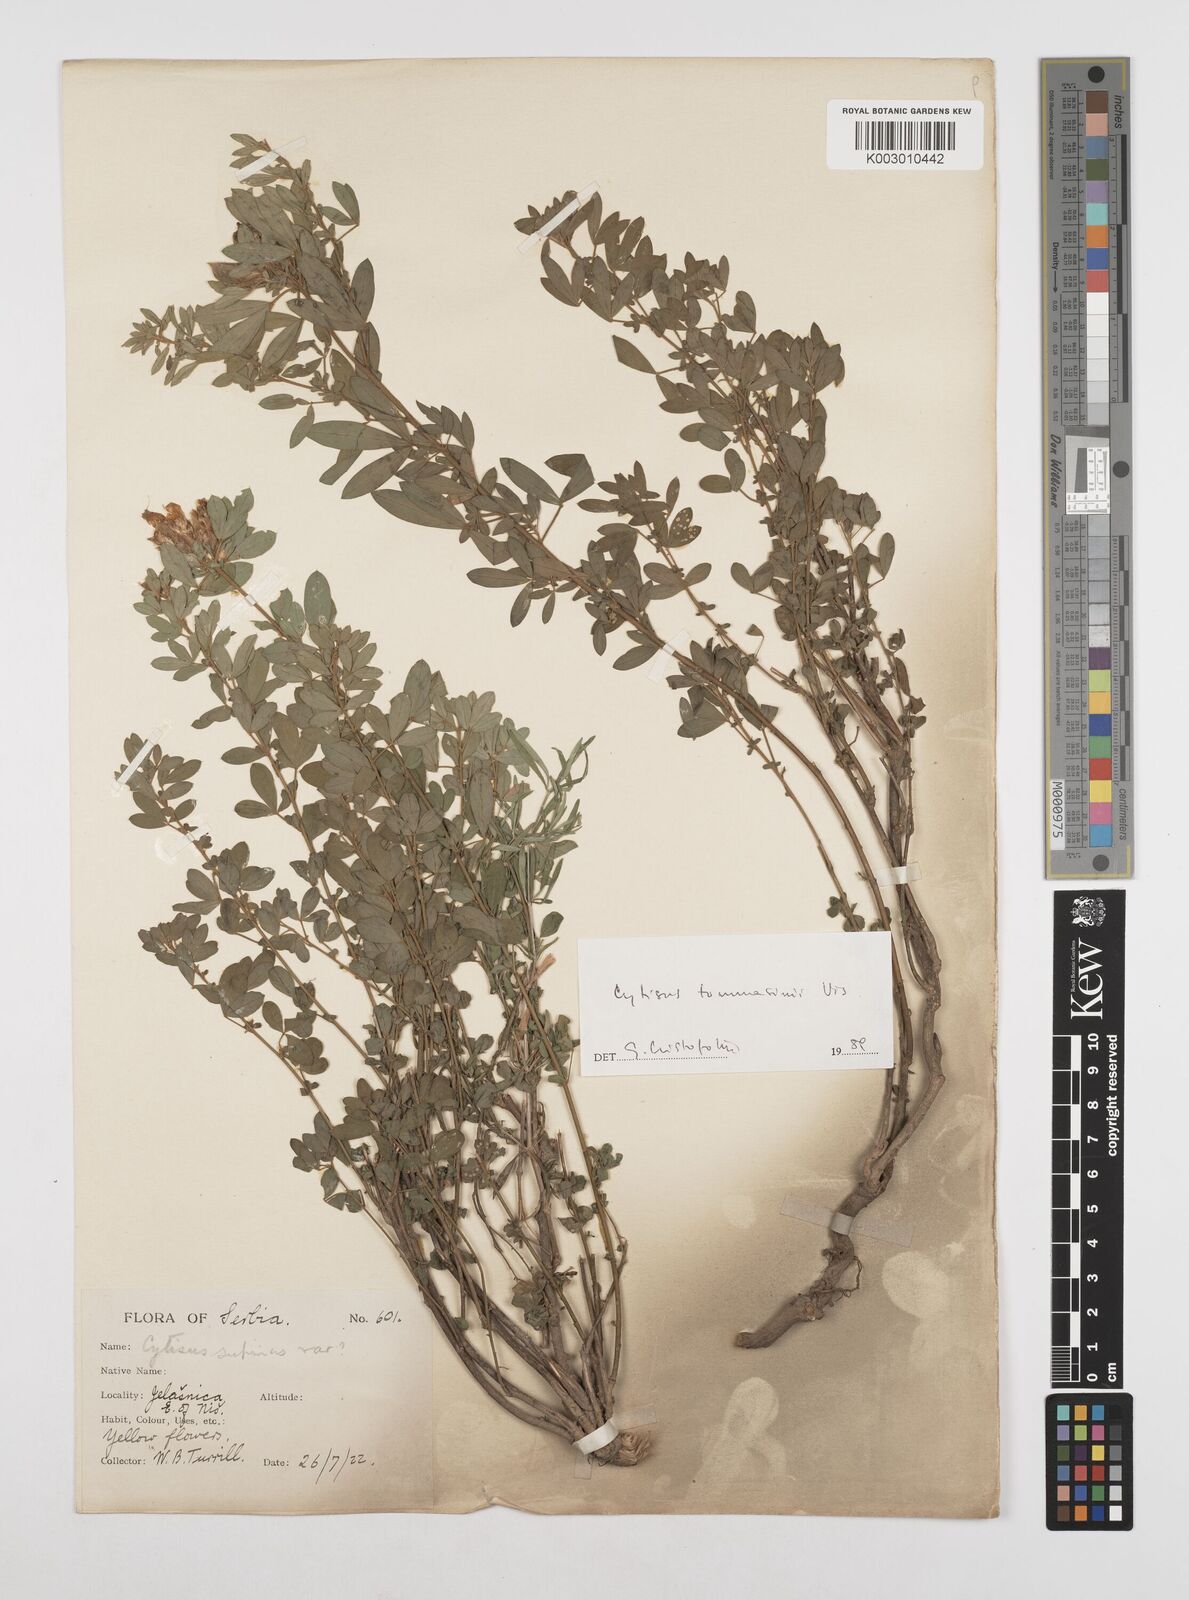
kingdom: Plantae
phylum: Tracheophyta
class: Magnoliopsida
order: Fabales
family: Fabaceae
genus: Chamaecytisus
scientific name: Chamaecytisus tommasinii
